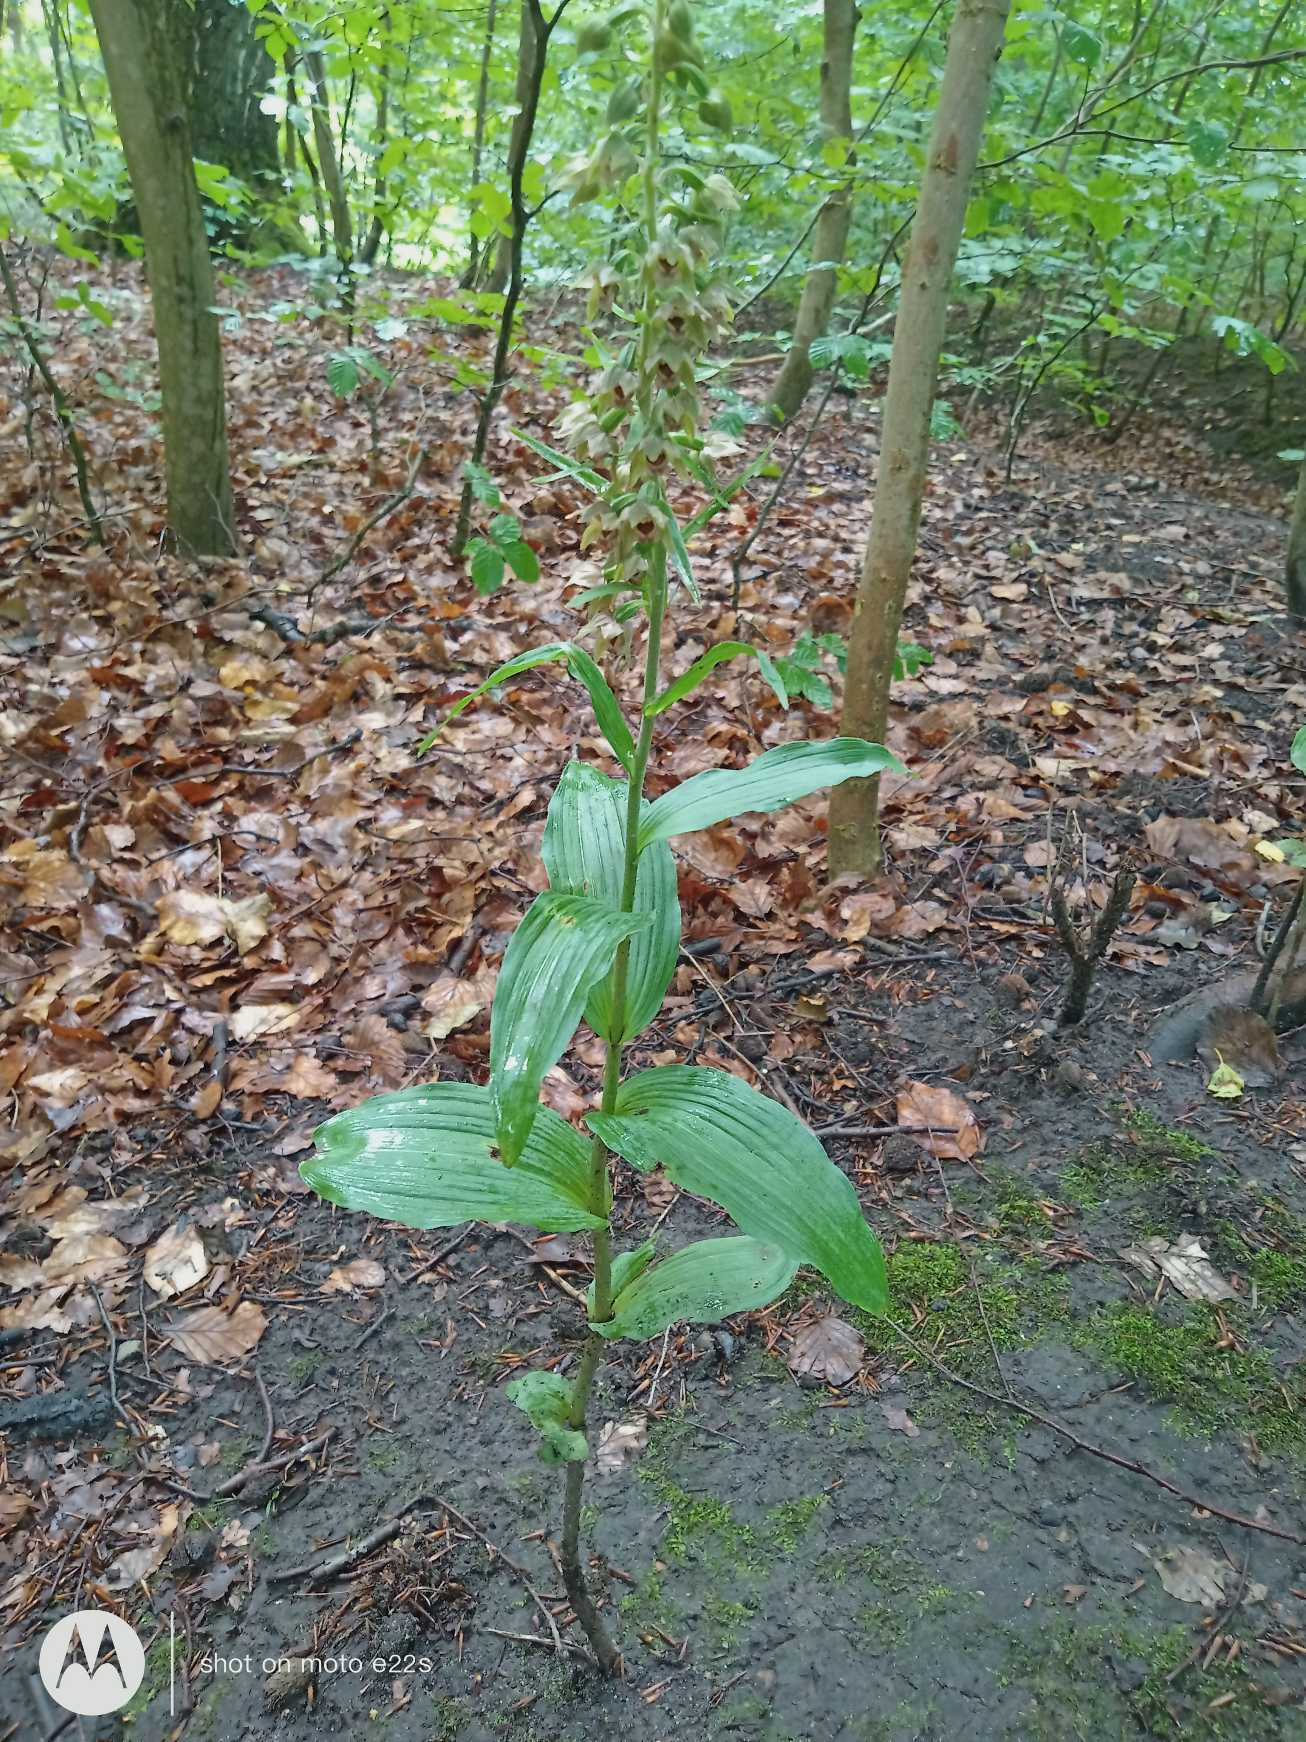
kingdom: Plantae
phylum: Tracheophyta
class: Liliopsida
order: Asparagales
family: Orchidaceae
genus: Epipactis
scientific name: Epipactis helleborine
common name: Skov-hullæbe
